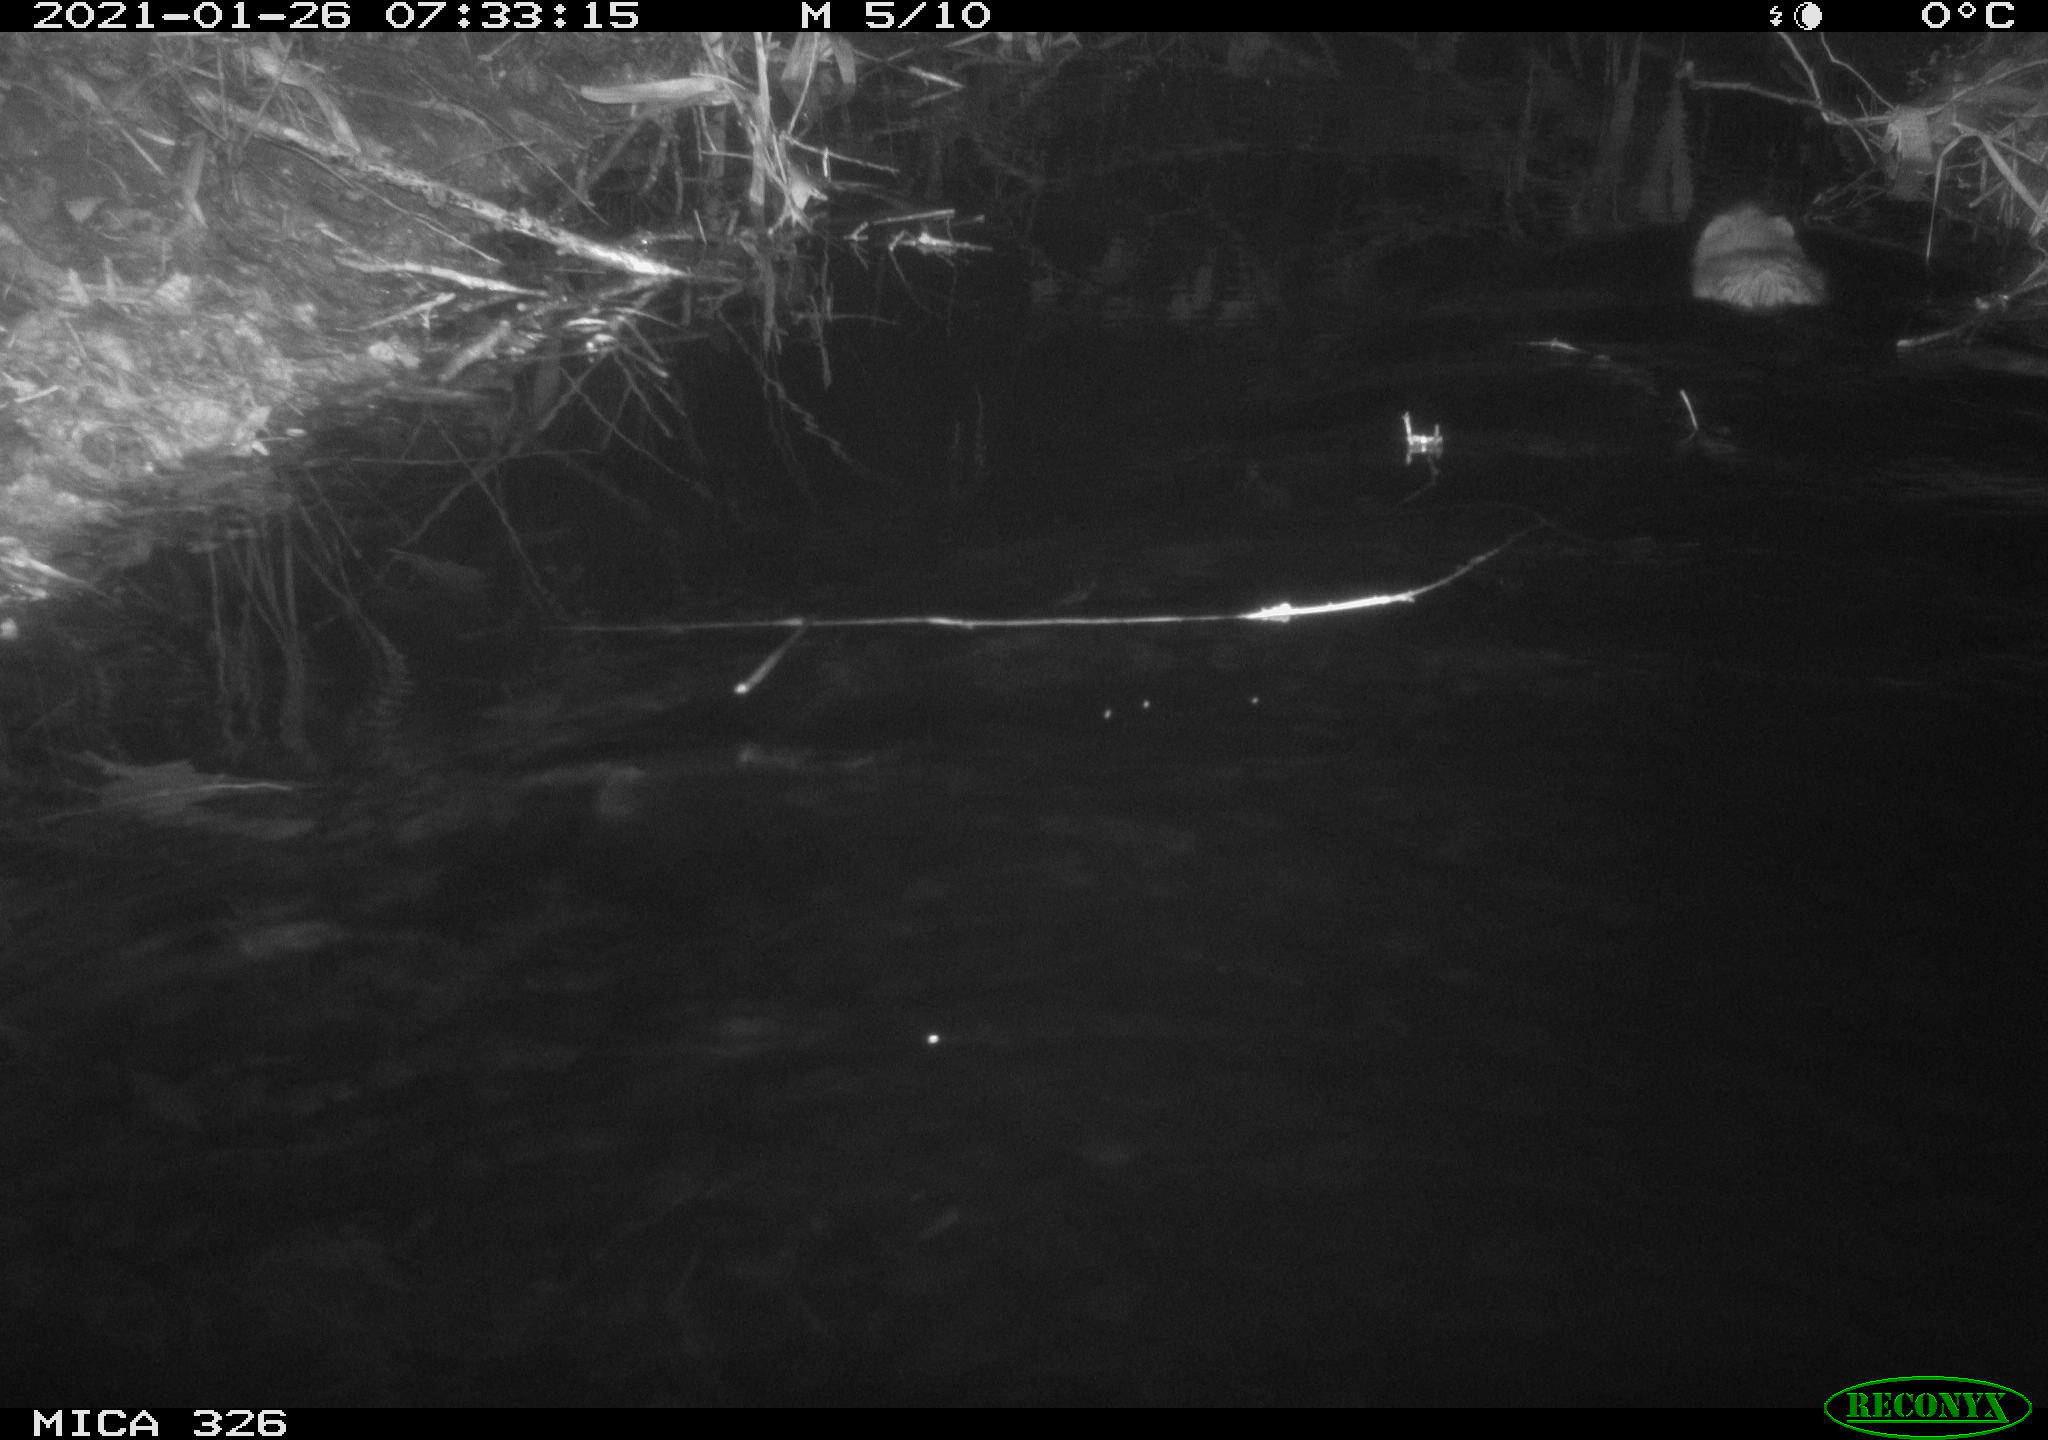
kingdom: Animalia
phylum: Chordata
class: Mammalia
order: Rodentia
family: Cricetidae
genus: Ondatra
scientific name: Ondatra zibethicus
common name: Muskrat
